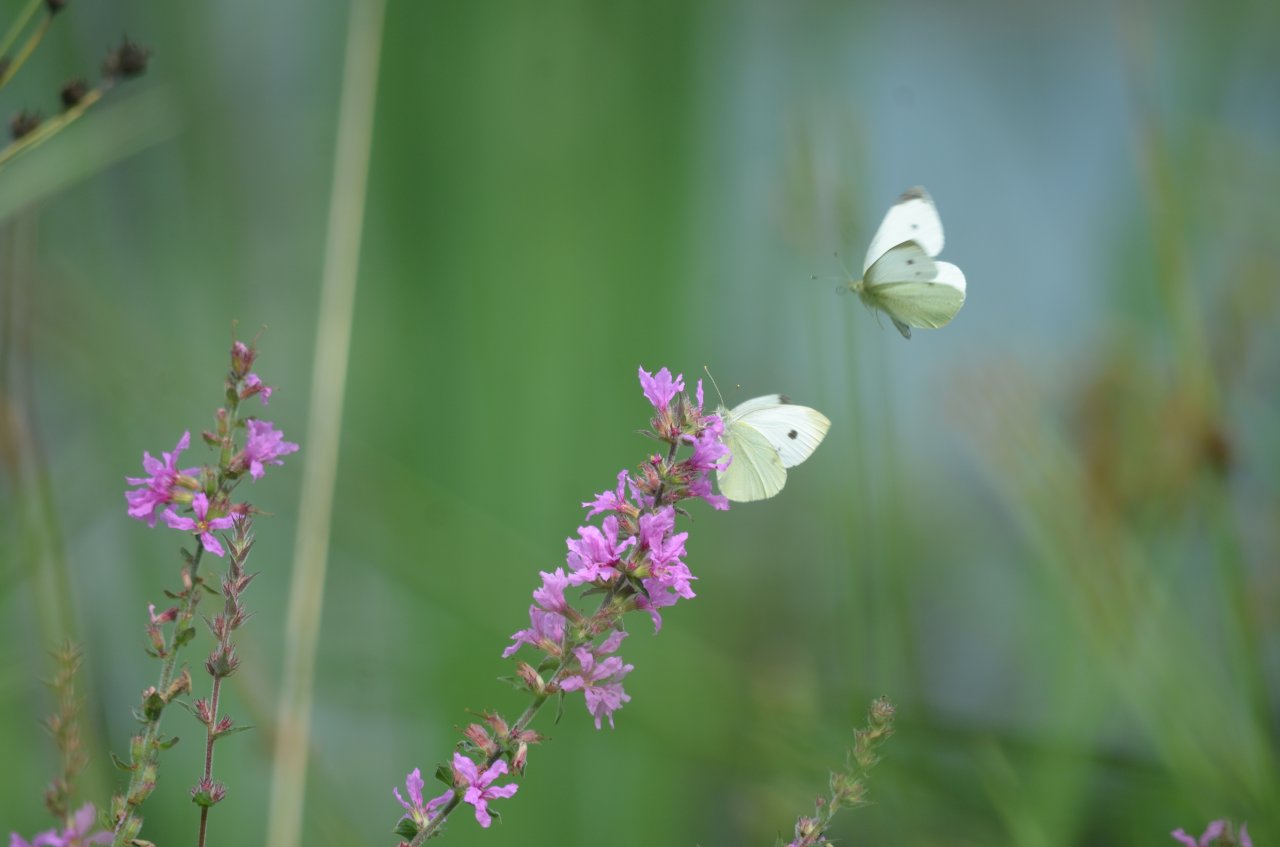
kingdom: Animalia
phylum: Arthropoda
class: Insecta
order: Lepidoptera
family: Pieridae
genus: Pieris
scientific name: Pieris rapae
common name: Cabbage White
